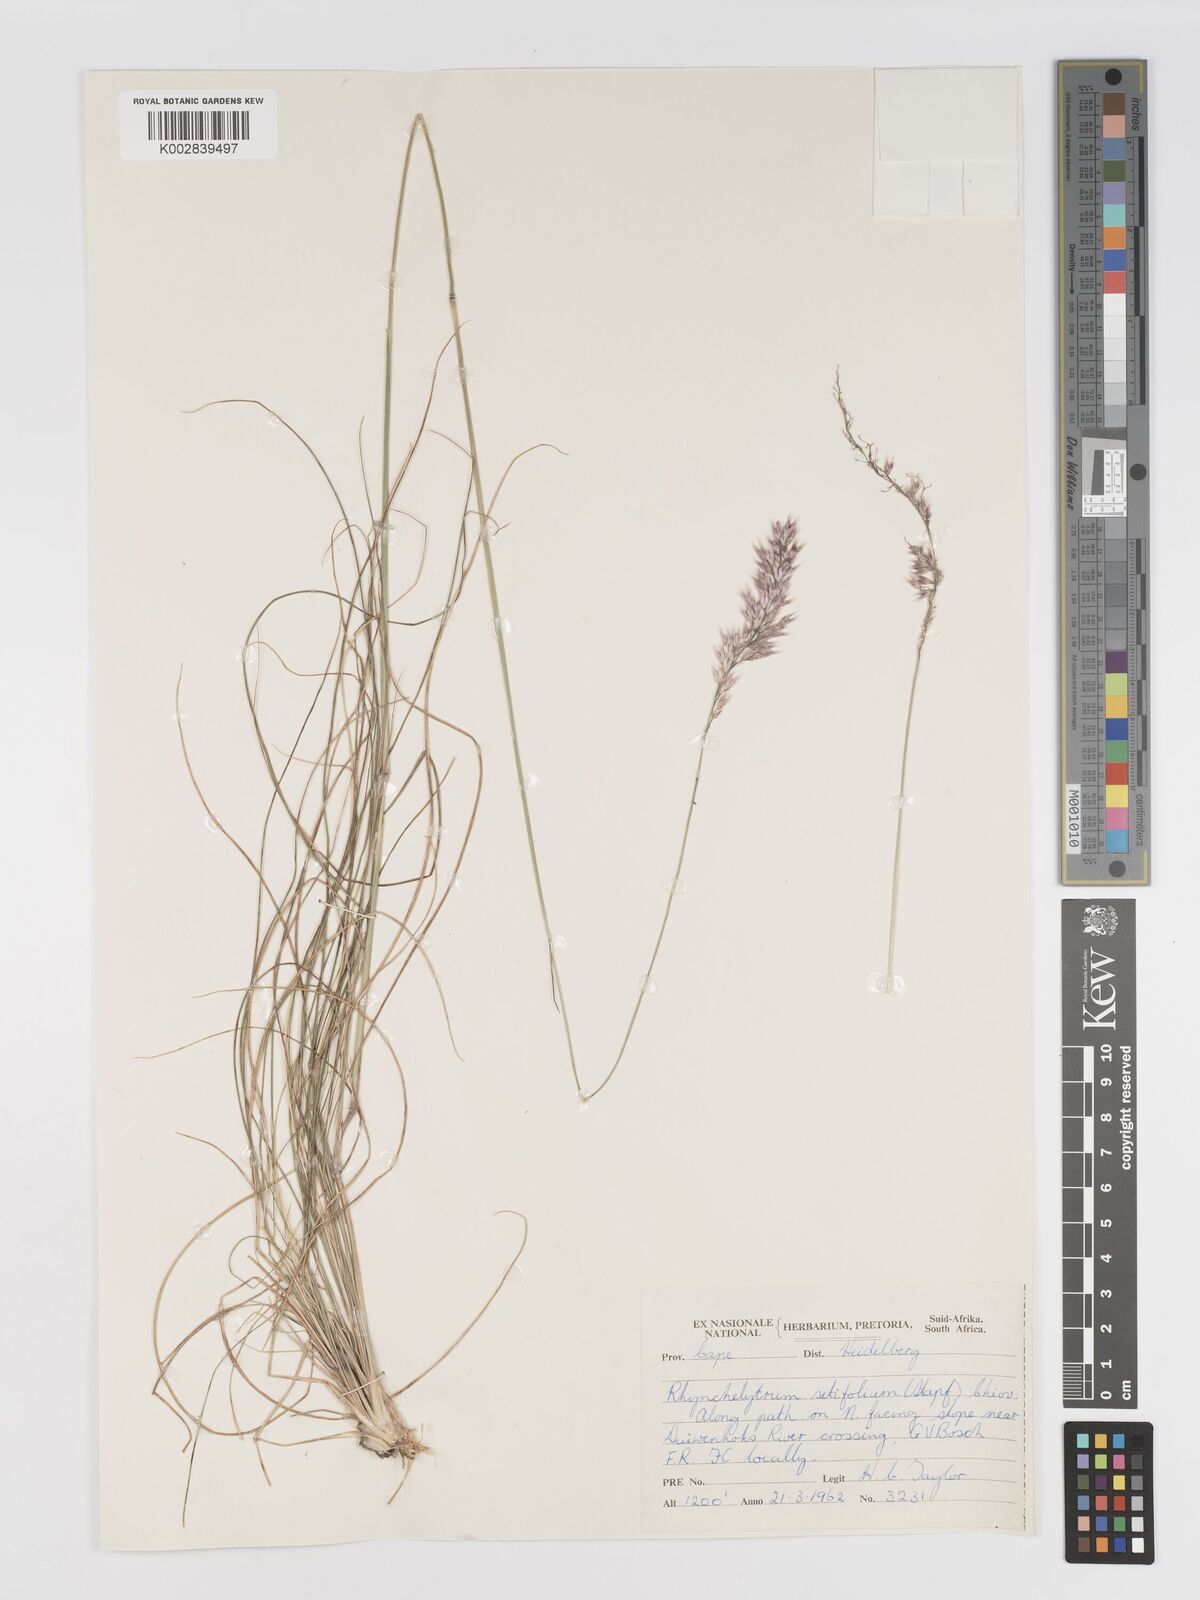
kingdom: Plantae
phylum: Tracheophyta
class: Liliopsida
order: Poales
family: Poaceae
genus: Melinis
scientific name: Melinis nerviglumis
